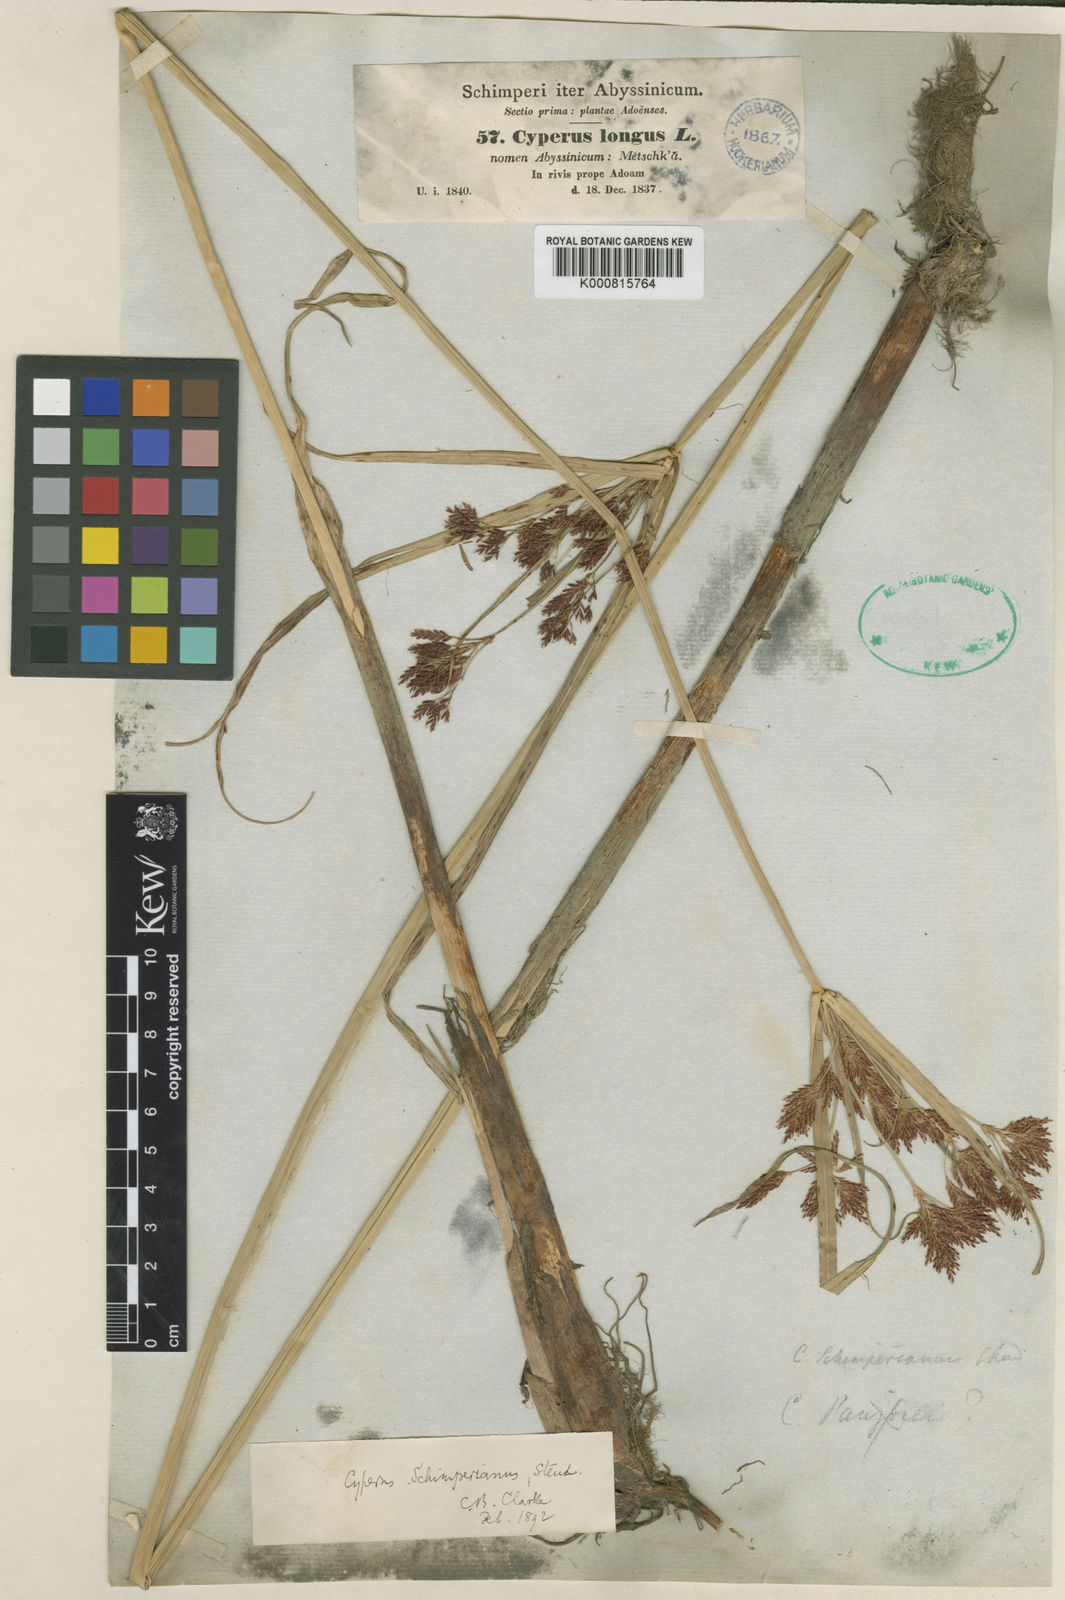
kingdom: Plantae
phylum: Tracheophyta
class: Liliopsida
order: Poales
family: Cyperaceae
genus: Cyperus
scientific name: Cyperus schimperianus
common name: Schimper flatsedge
